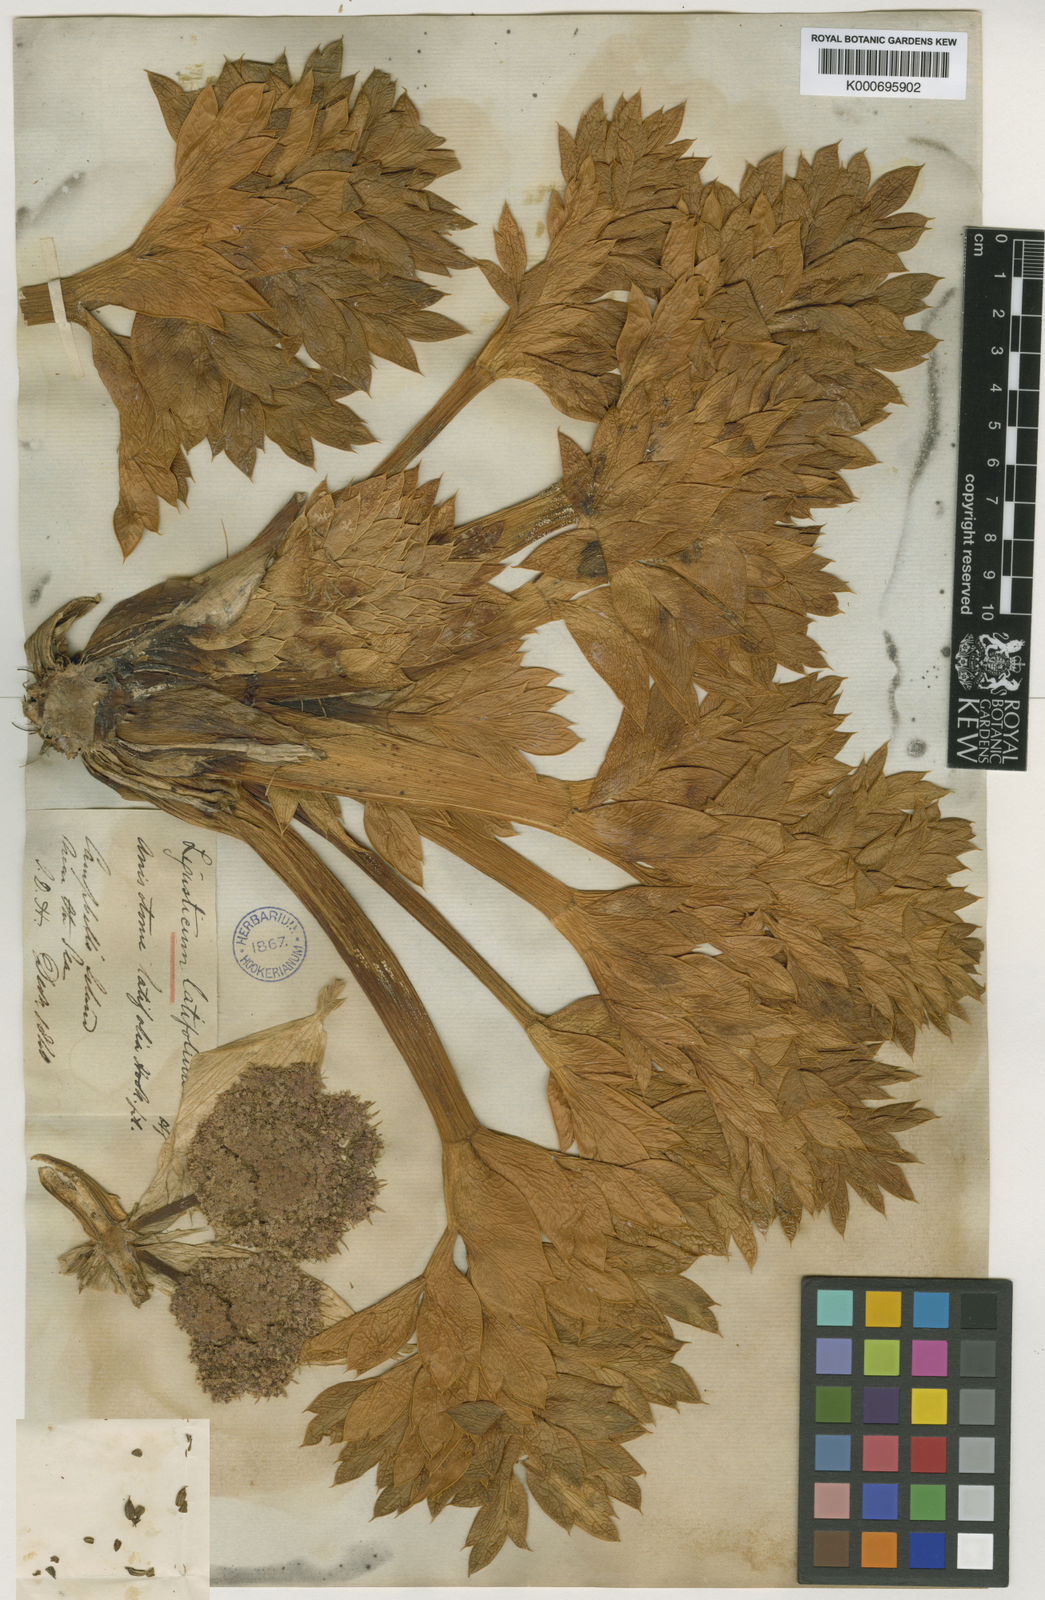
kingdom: Plantae
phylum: Tracheophyta
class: Magnoliopsida
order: Apiales
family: Apiaceae
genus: Anisotome
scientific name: Anisotome latifolia
